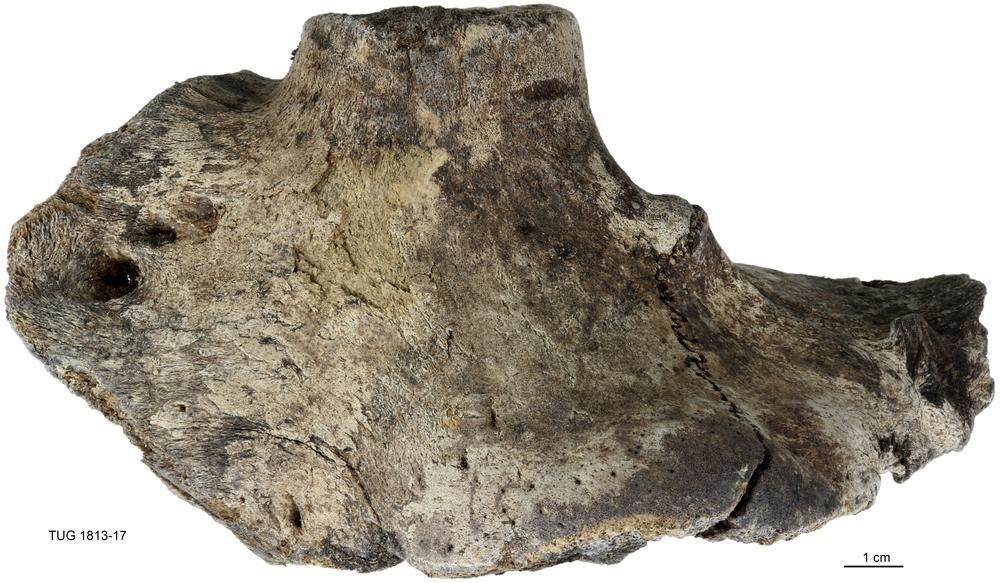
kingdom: Animalia
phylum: Chordata
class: Mammalia
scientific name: Mammalia
